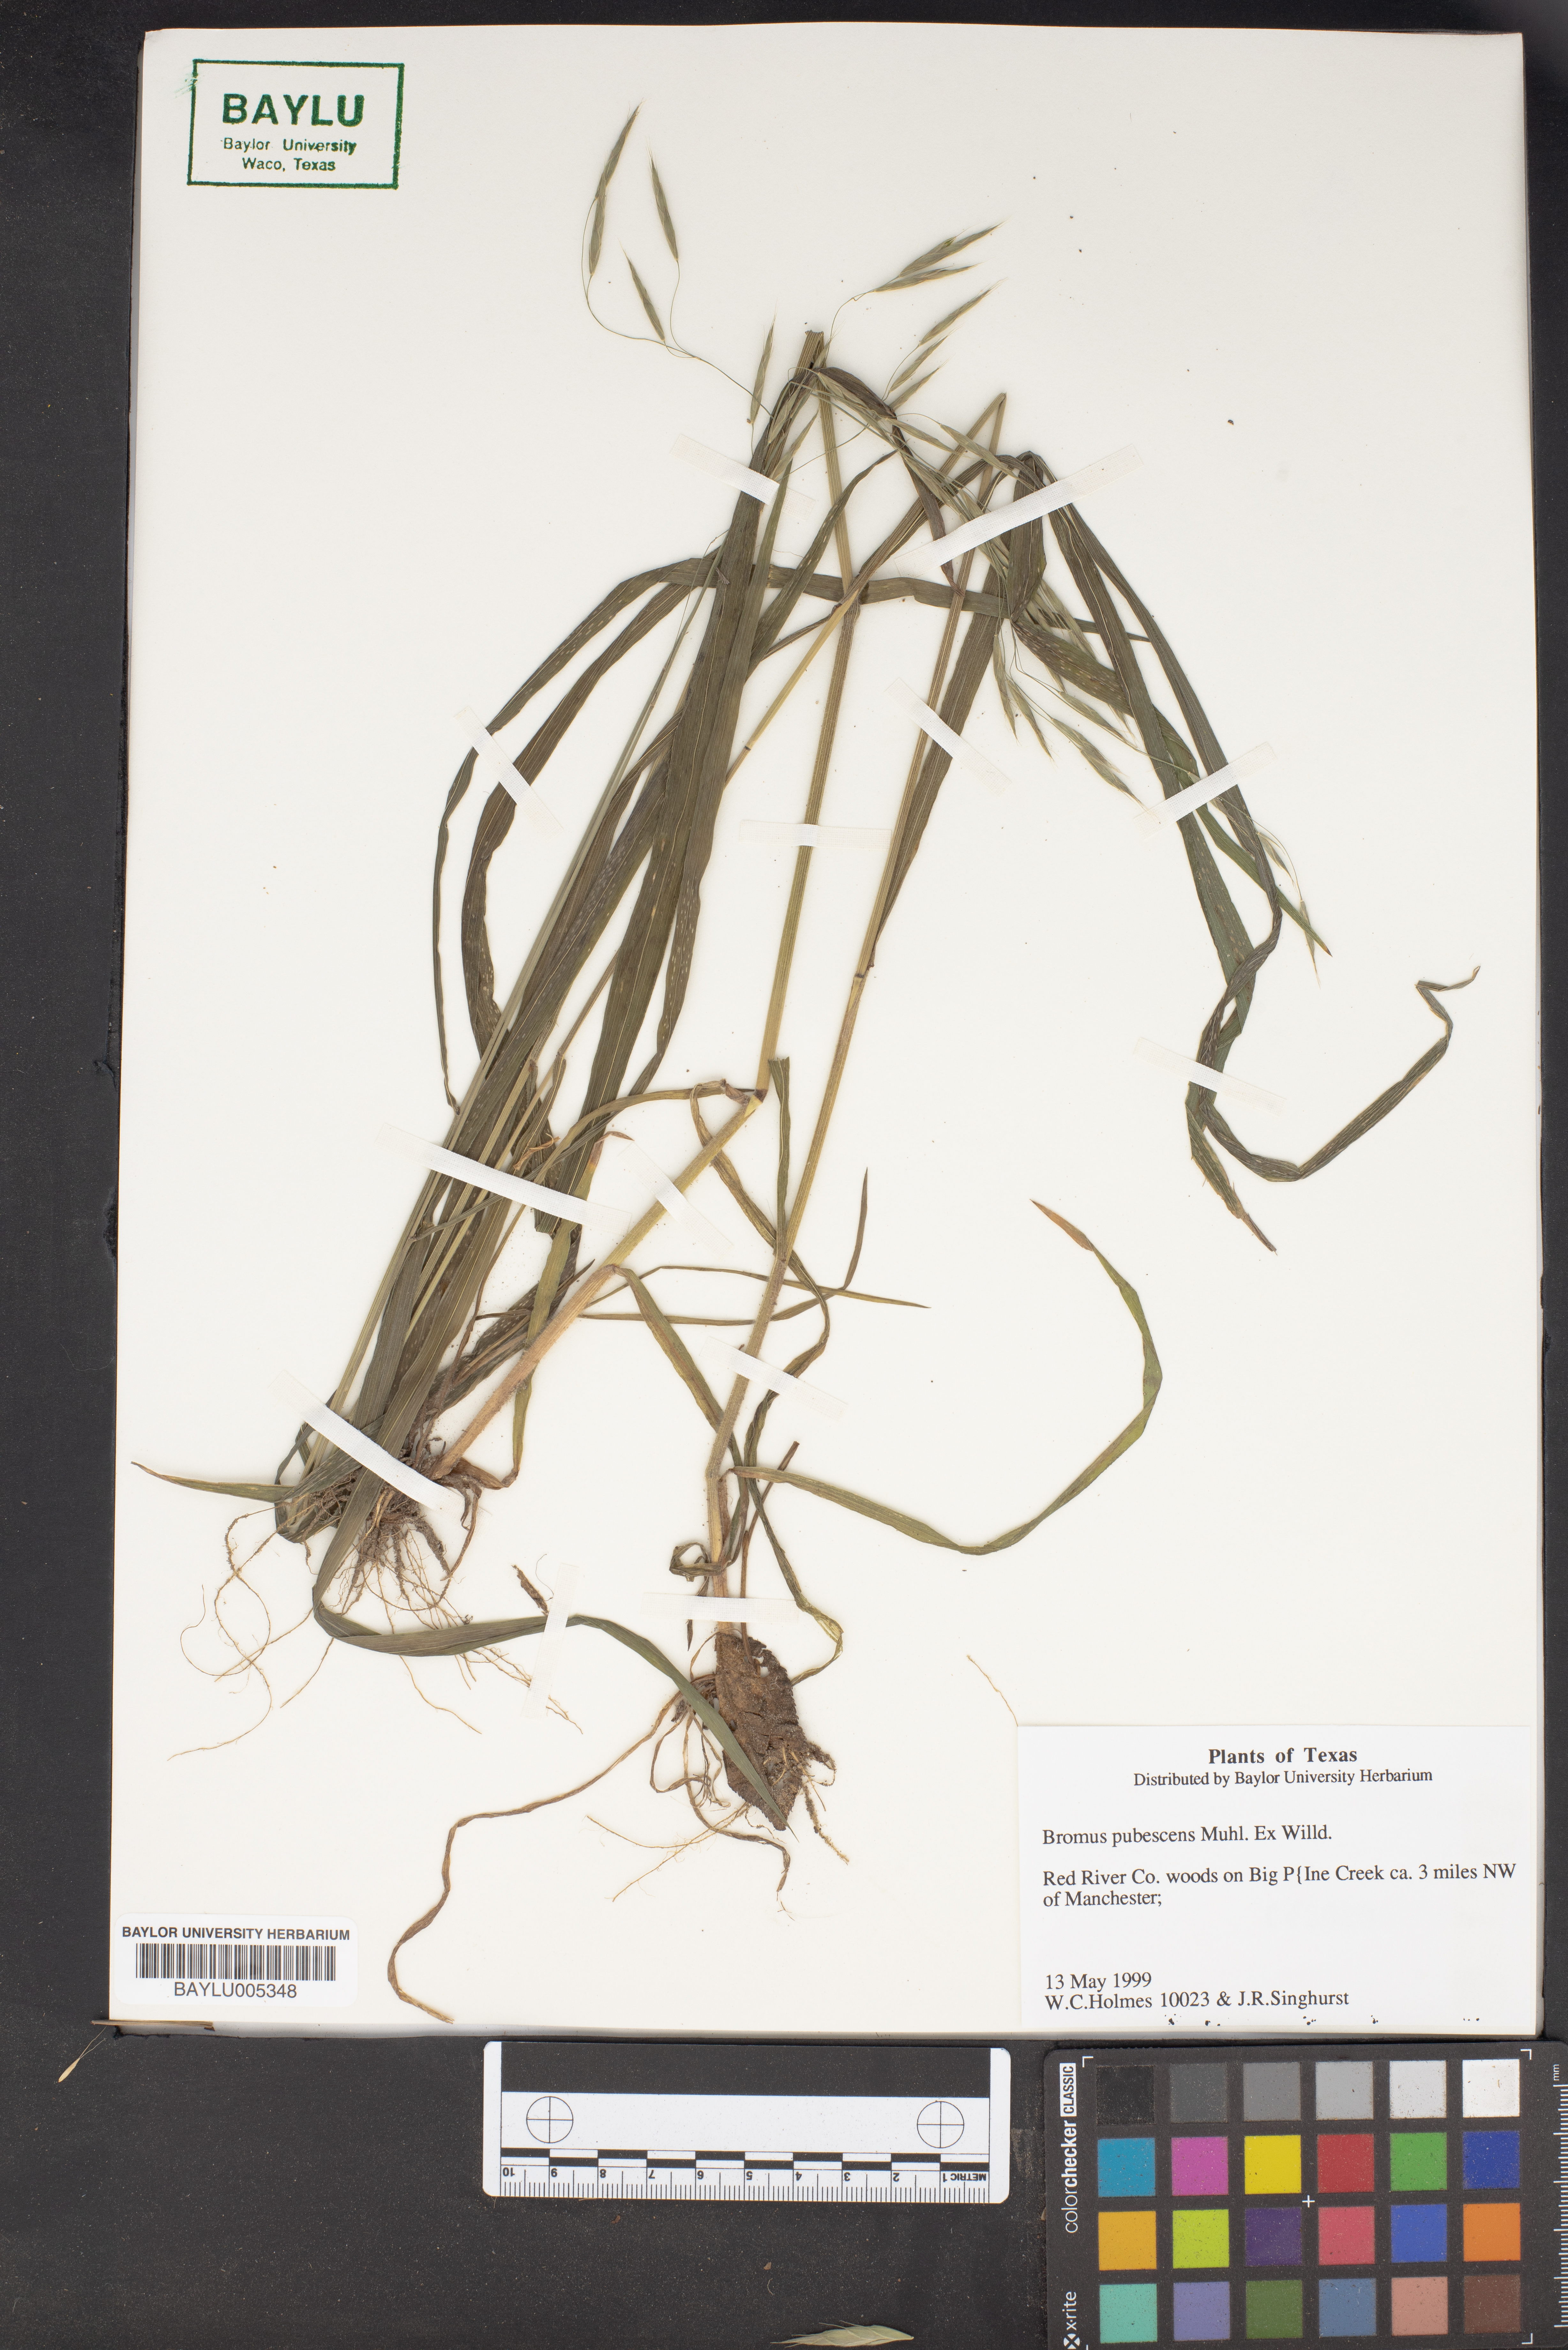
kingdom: Plantae
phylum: Tracheophyta
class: Liliopsida
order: Poales
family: Poaceae
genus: Bromus
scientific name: Bromus pubescens
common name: Hairy wood brome grass
